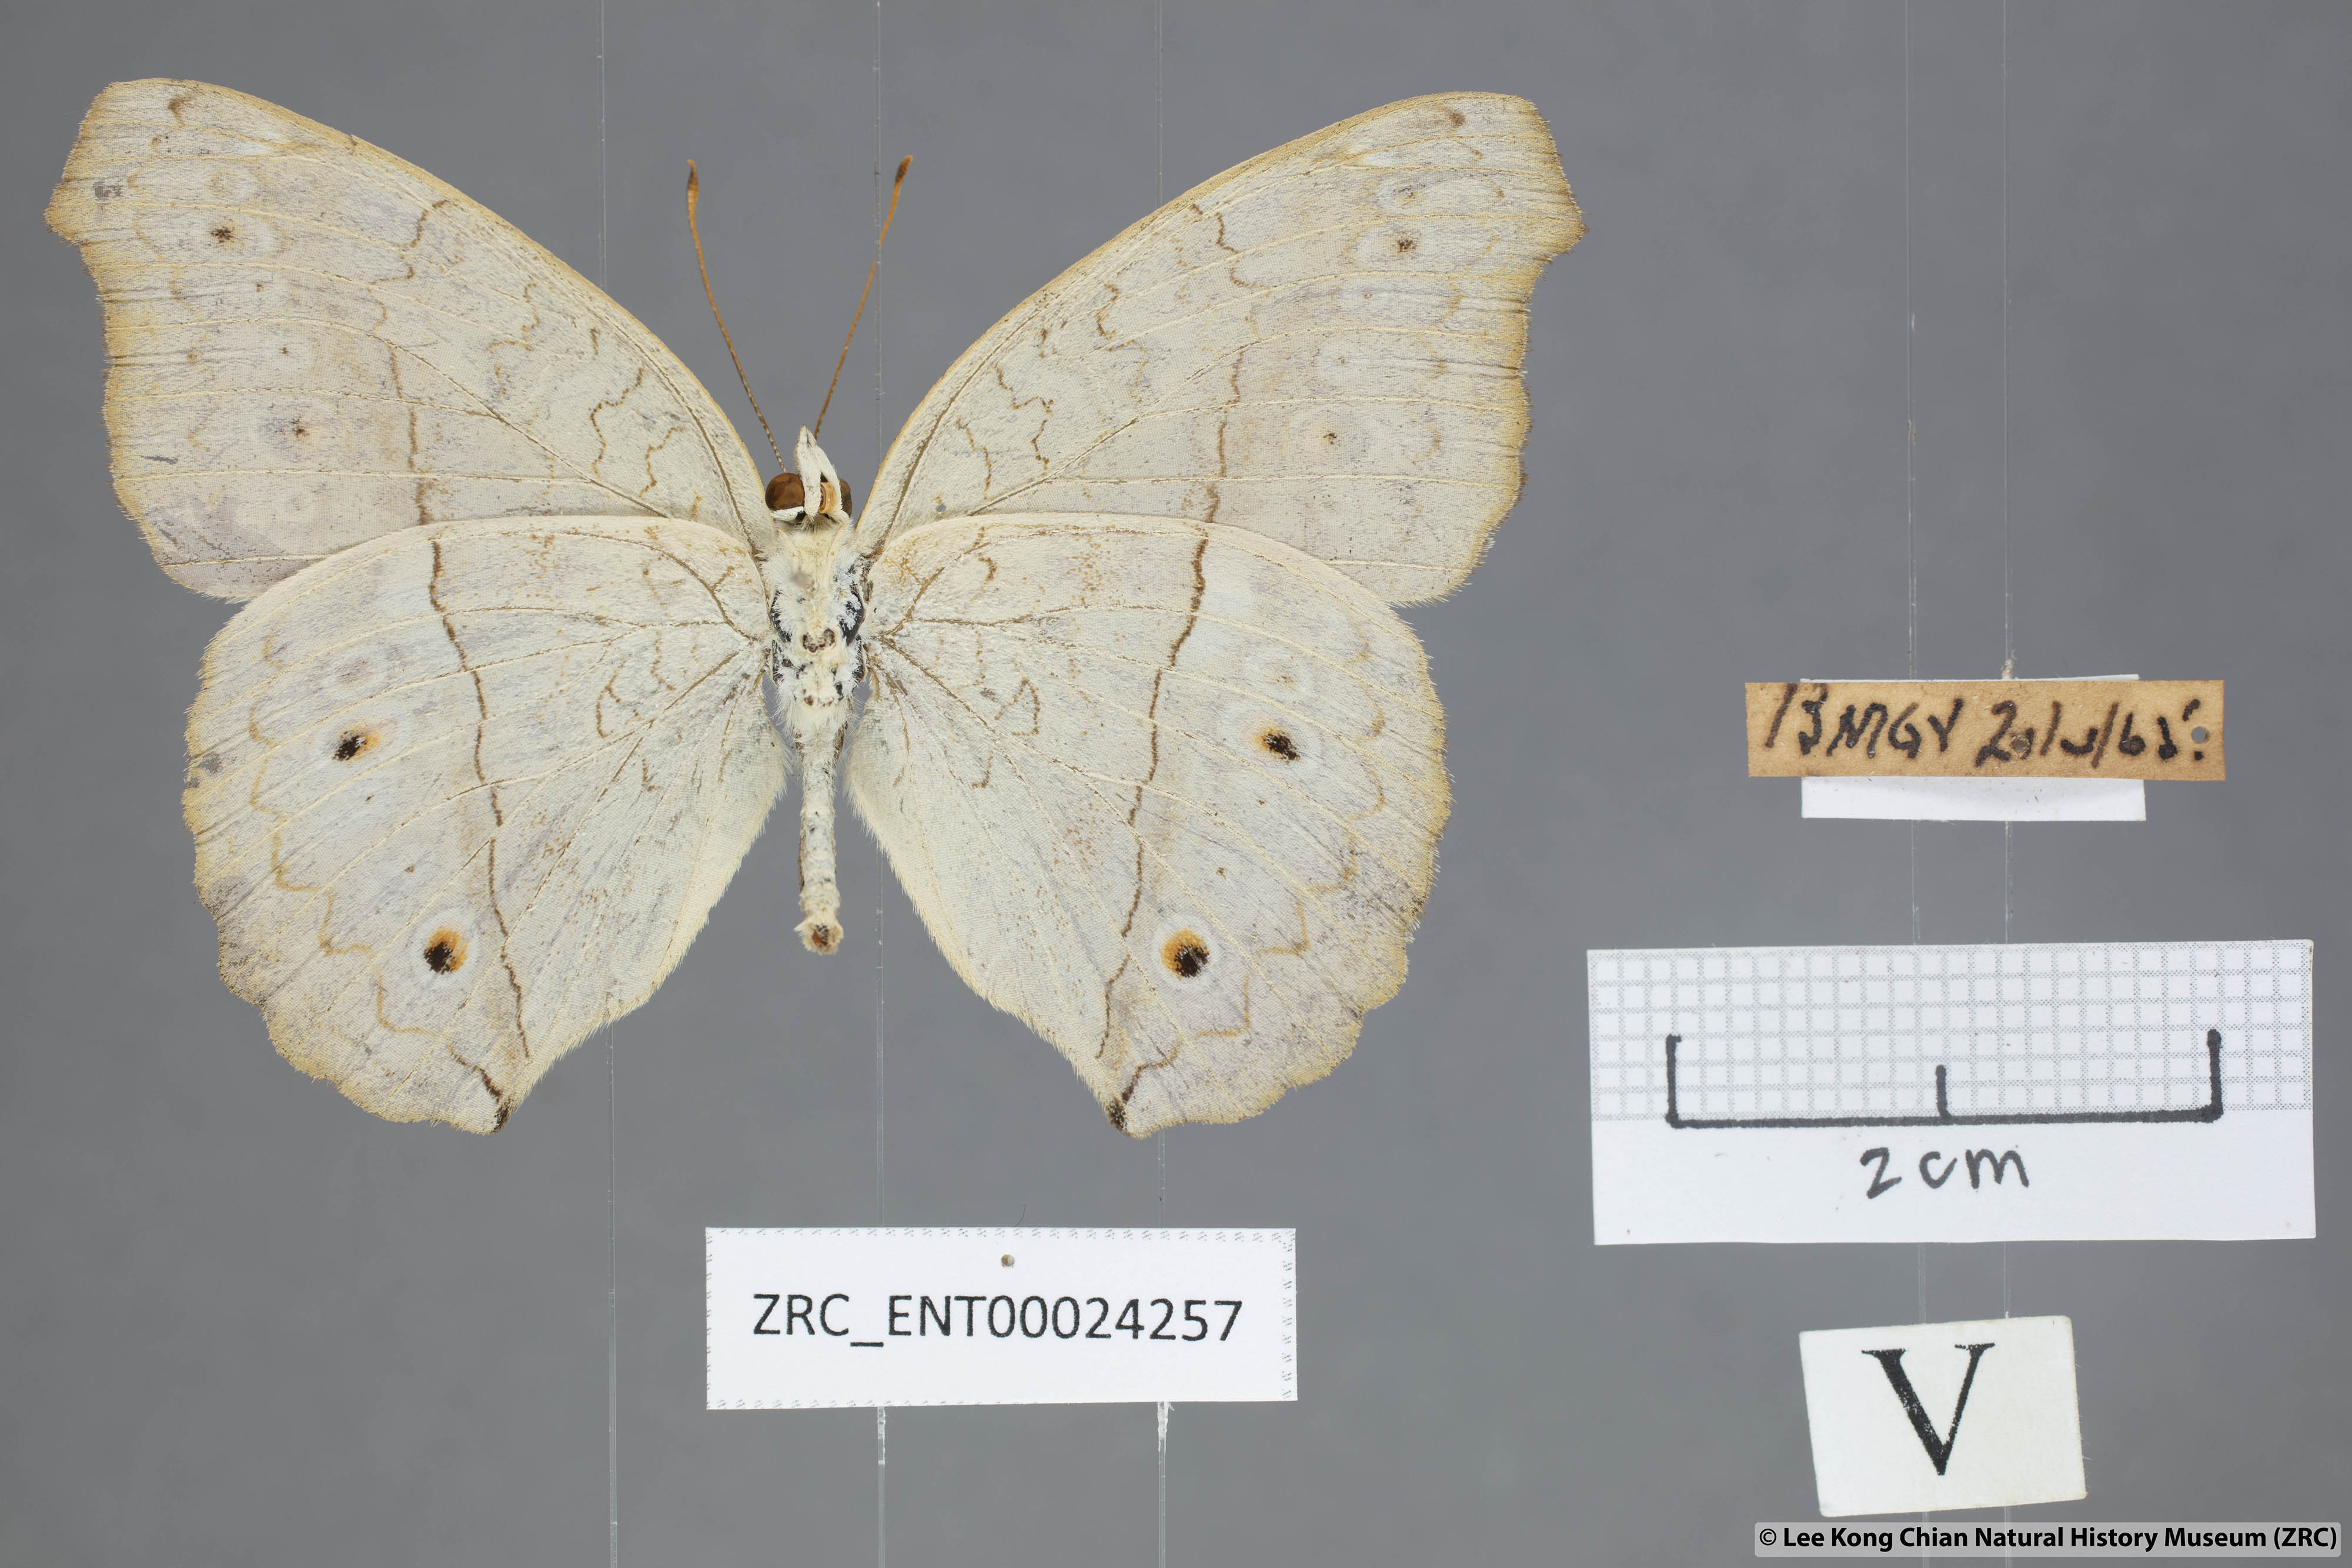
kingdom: Animalia
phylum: Arthropoda
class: Insecta
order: Lepidoptera
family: Nymphalidae
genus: Junonia
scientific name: Junonia atlites
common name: Grey pansy
